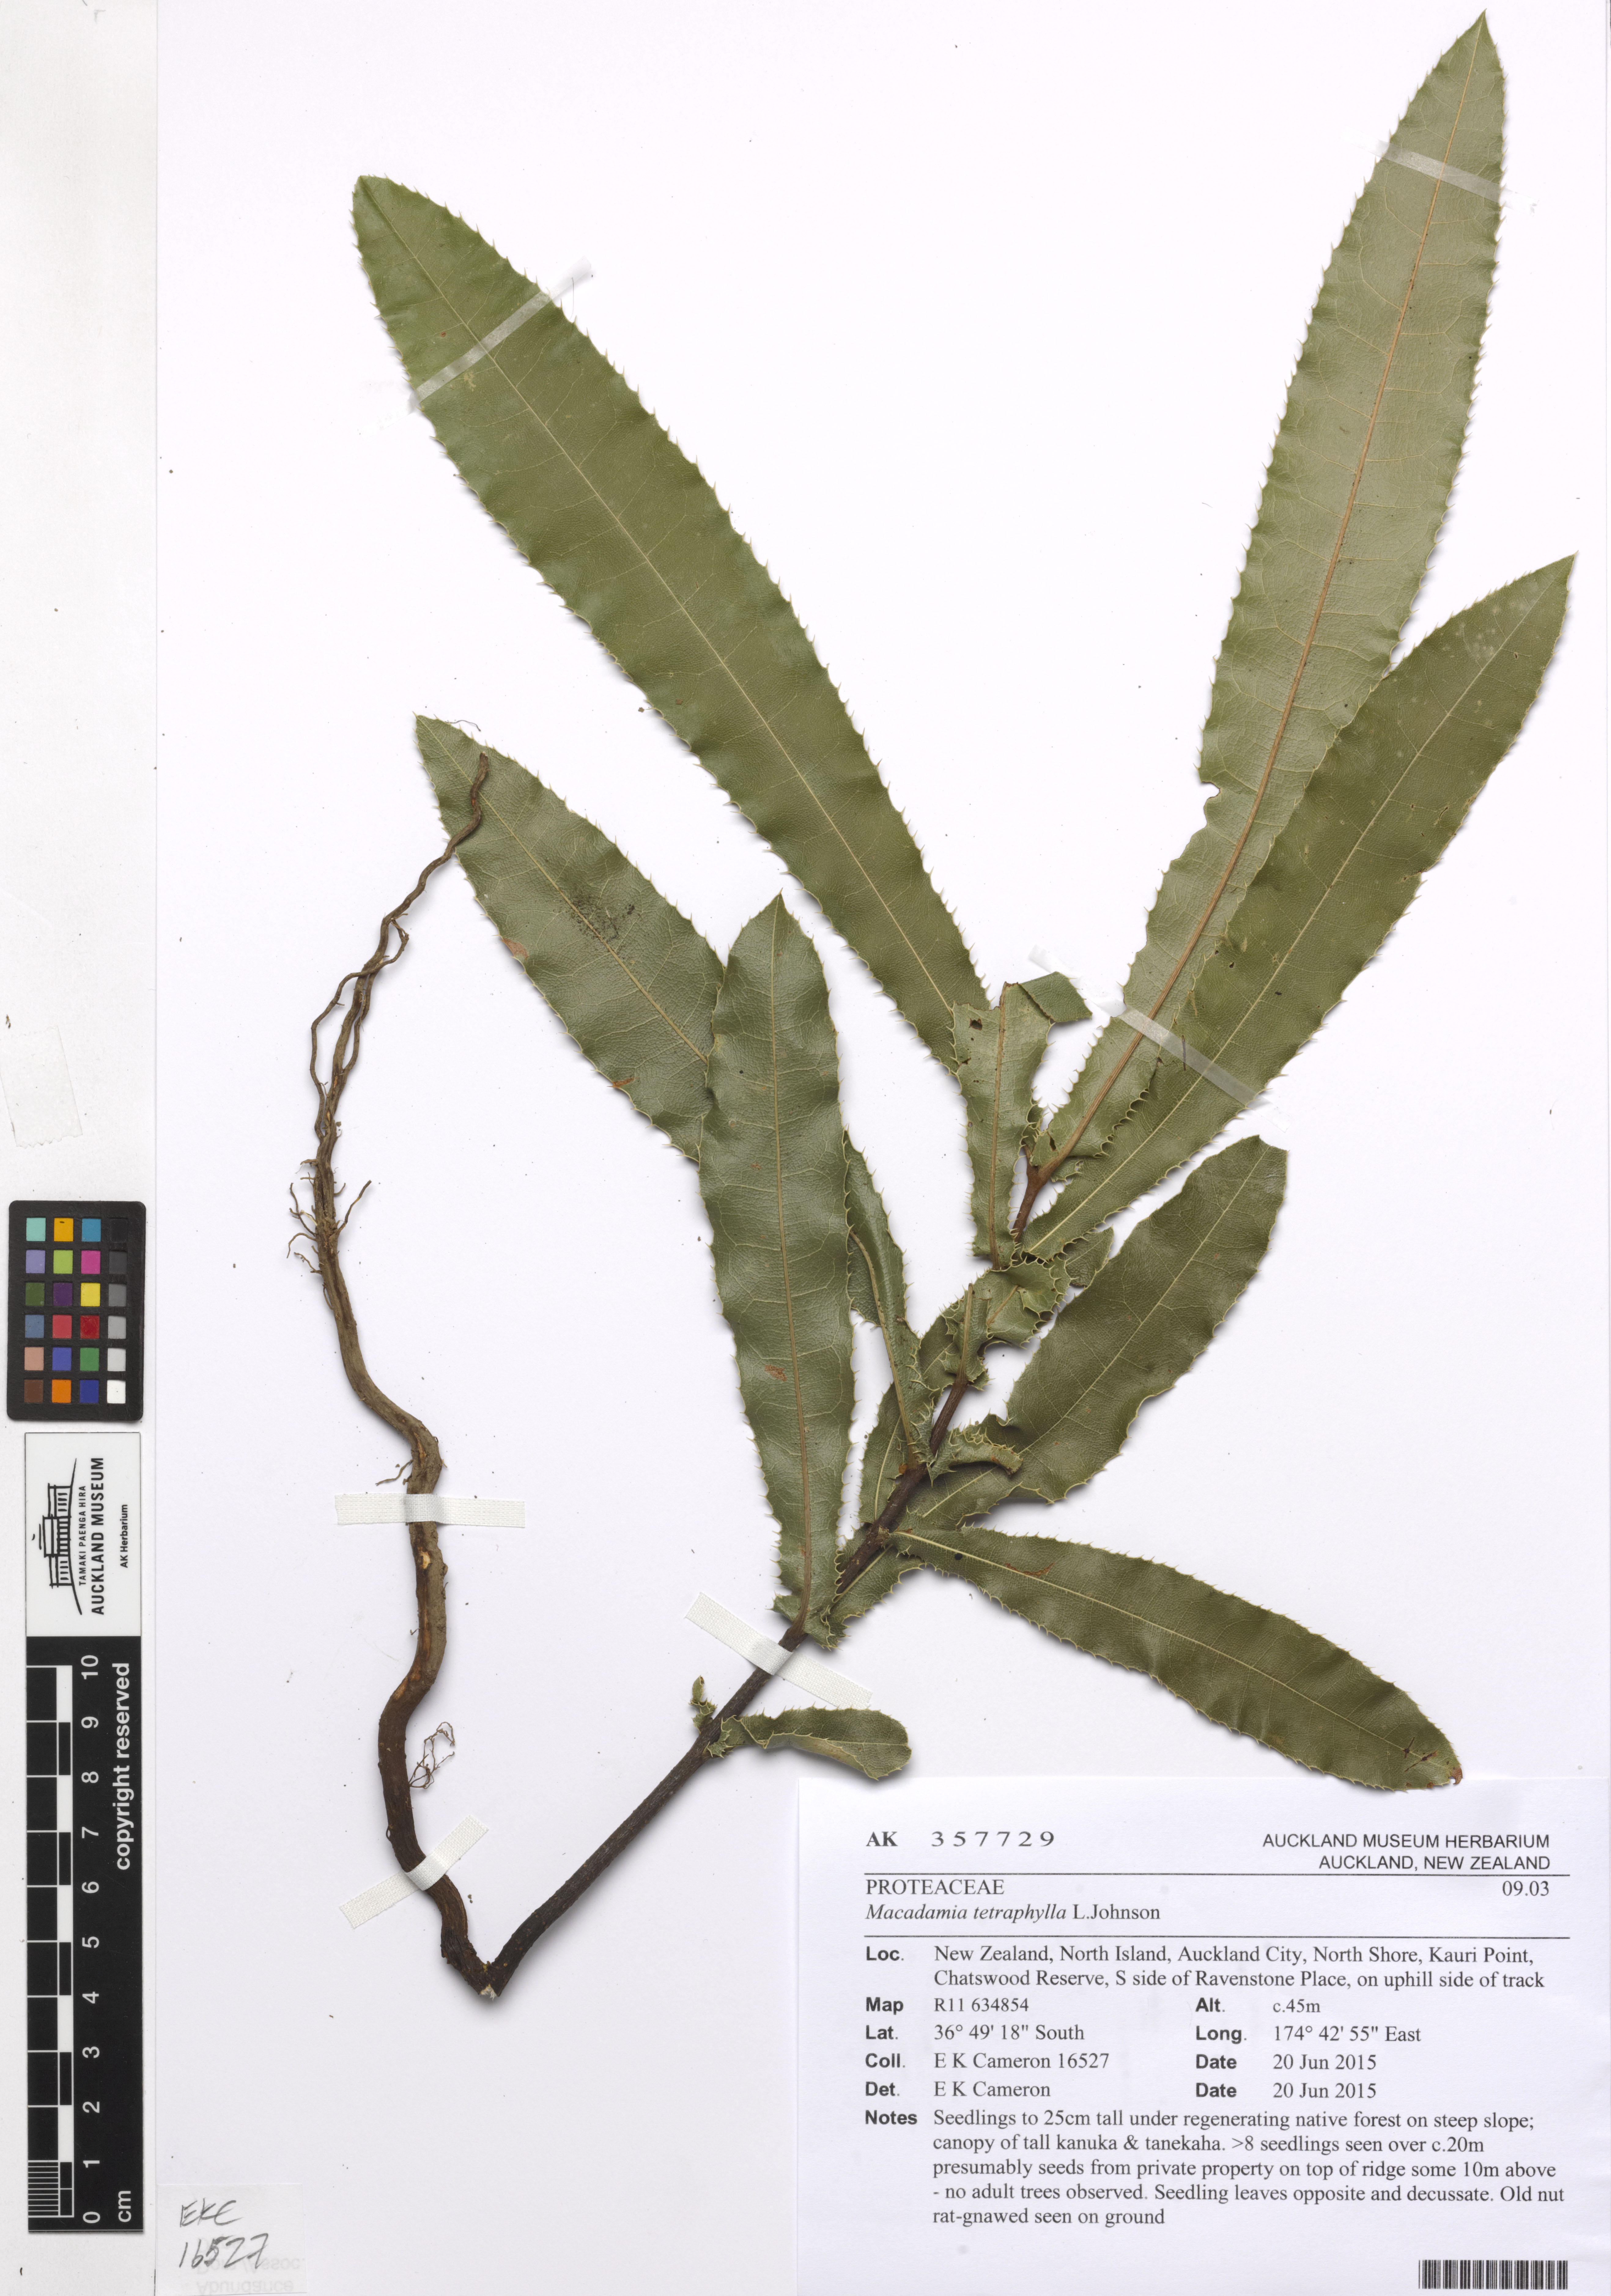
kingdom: Plantae
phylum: Tracheophyta
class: Magnoliopsida
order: Proteales
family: Proteaceae
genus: Macadamia
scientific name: Macadamia tetraphylla
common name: Macadamia nut
